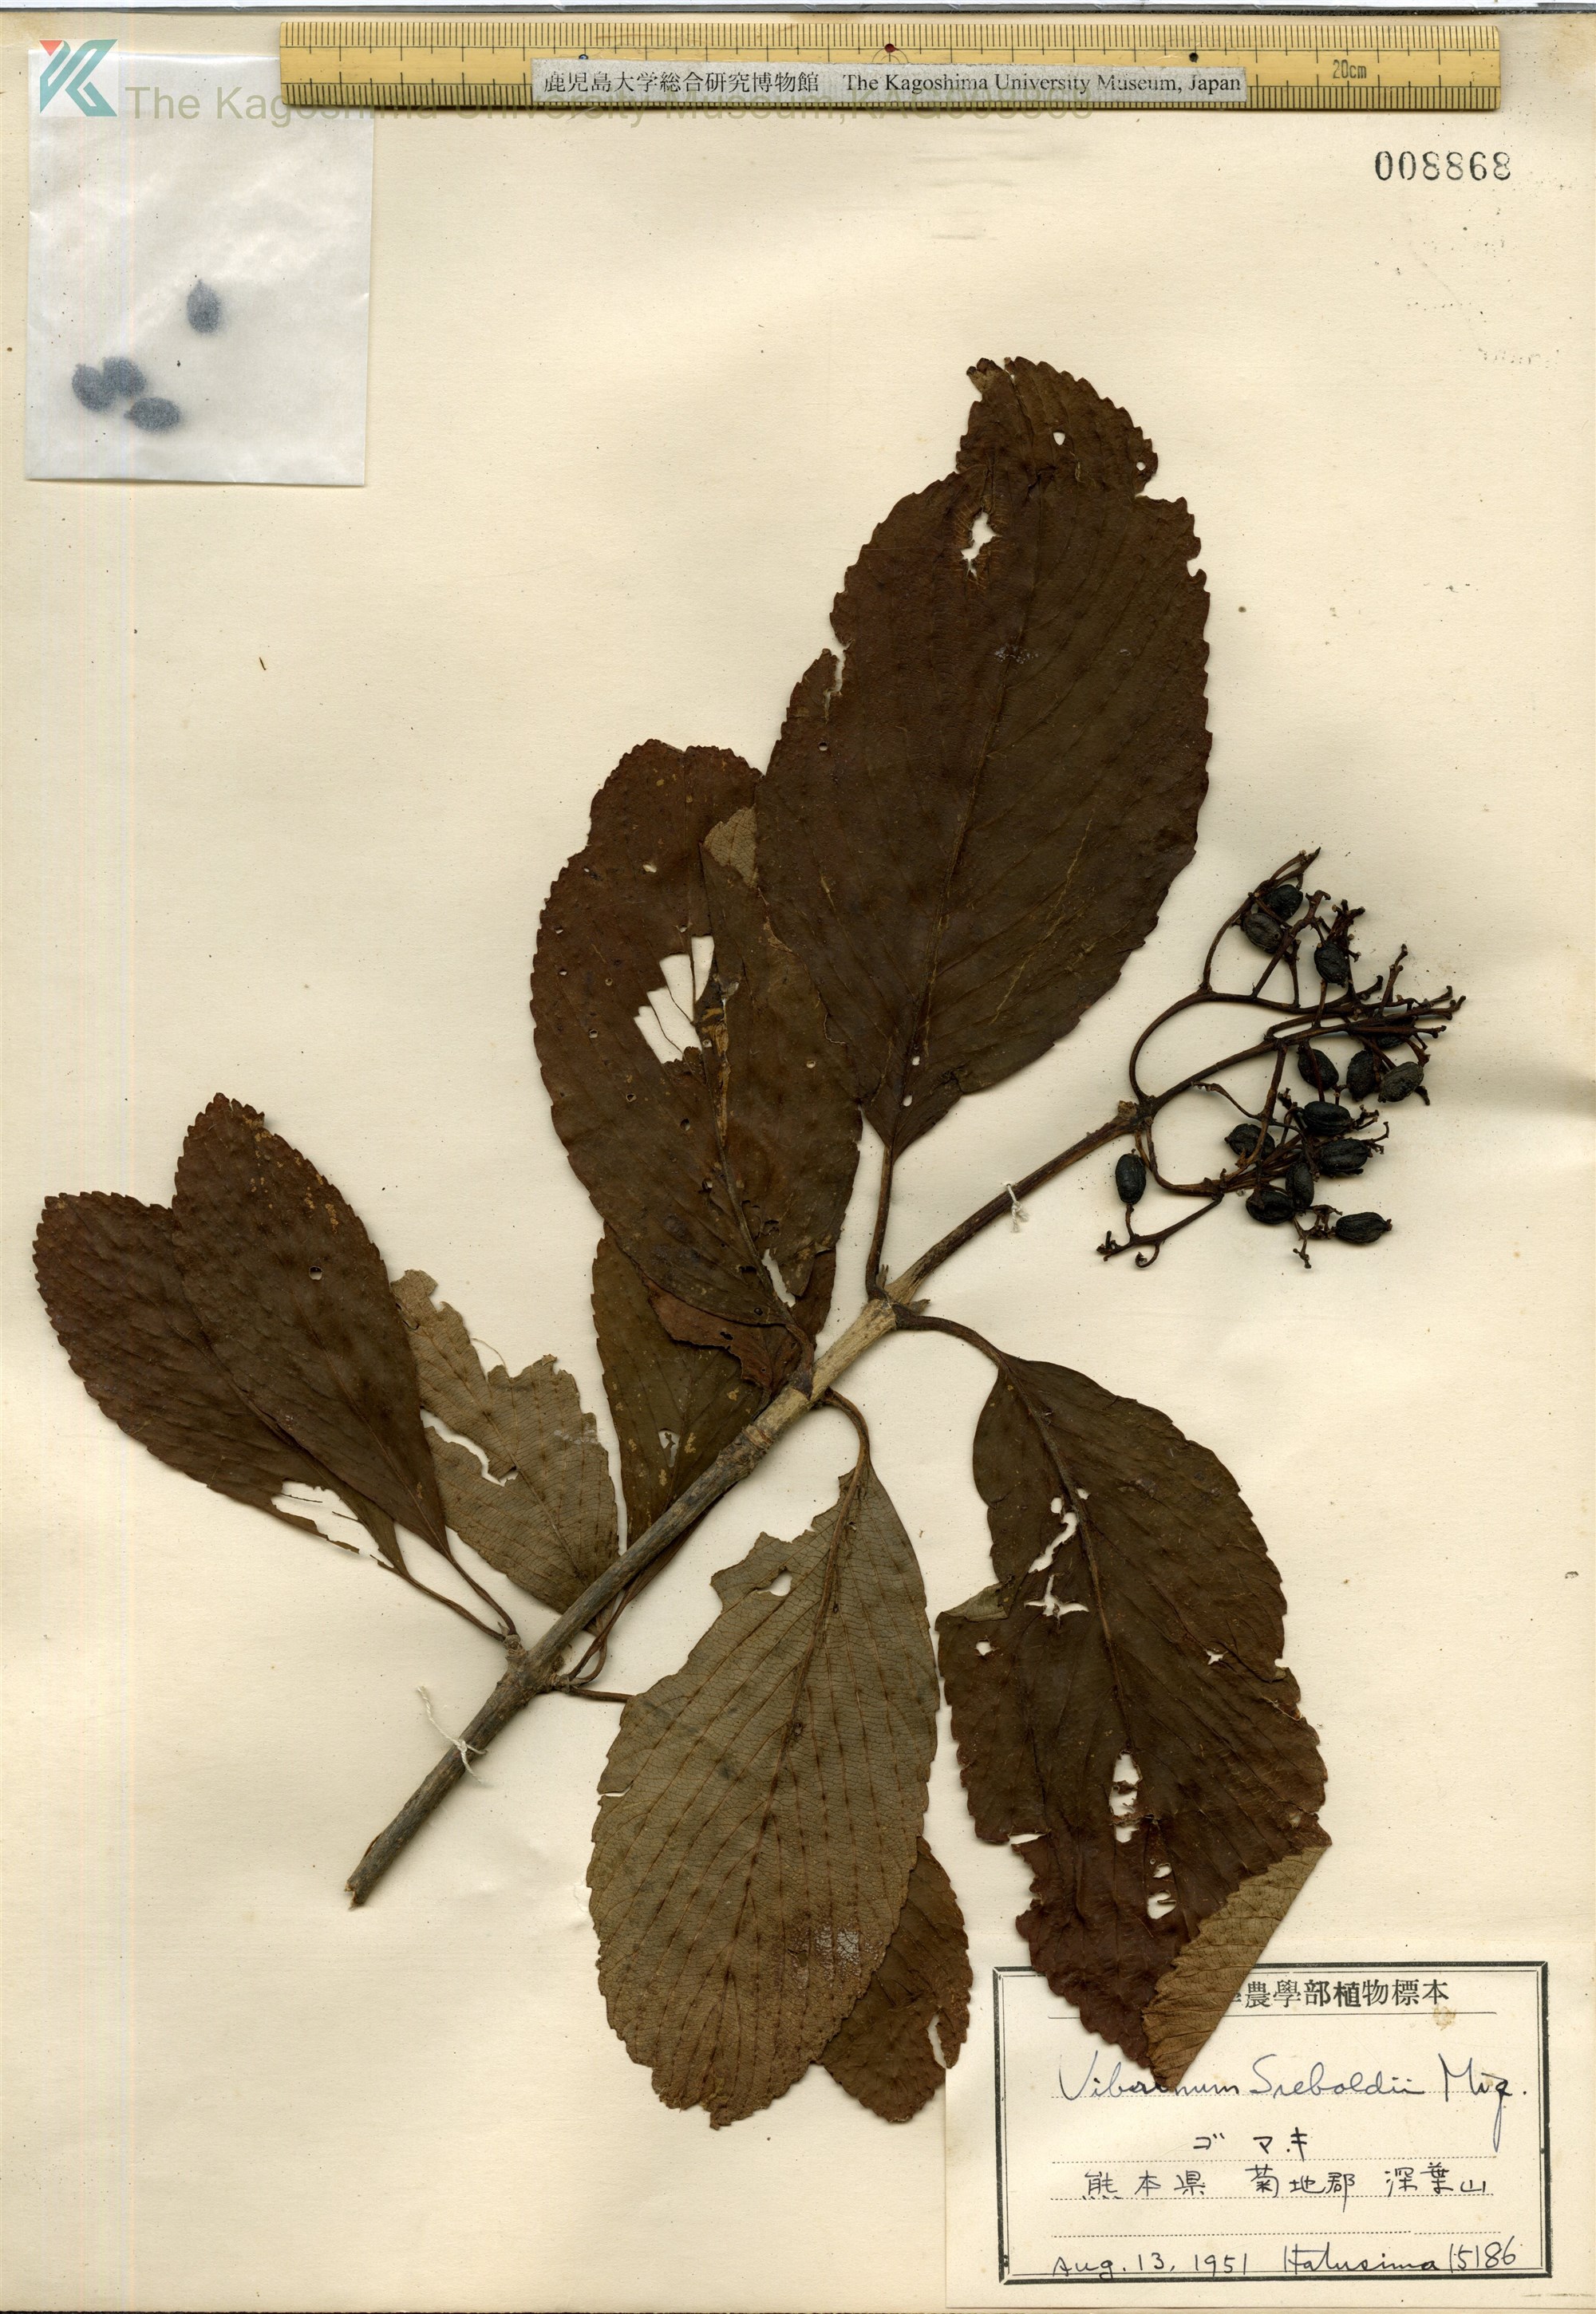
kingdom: Plantae
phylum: Tracheophyta
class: Magnoliopsida
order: Dipsacales
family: Viburnaceae
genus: Viburnum
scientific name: Viburnum sieboldii
